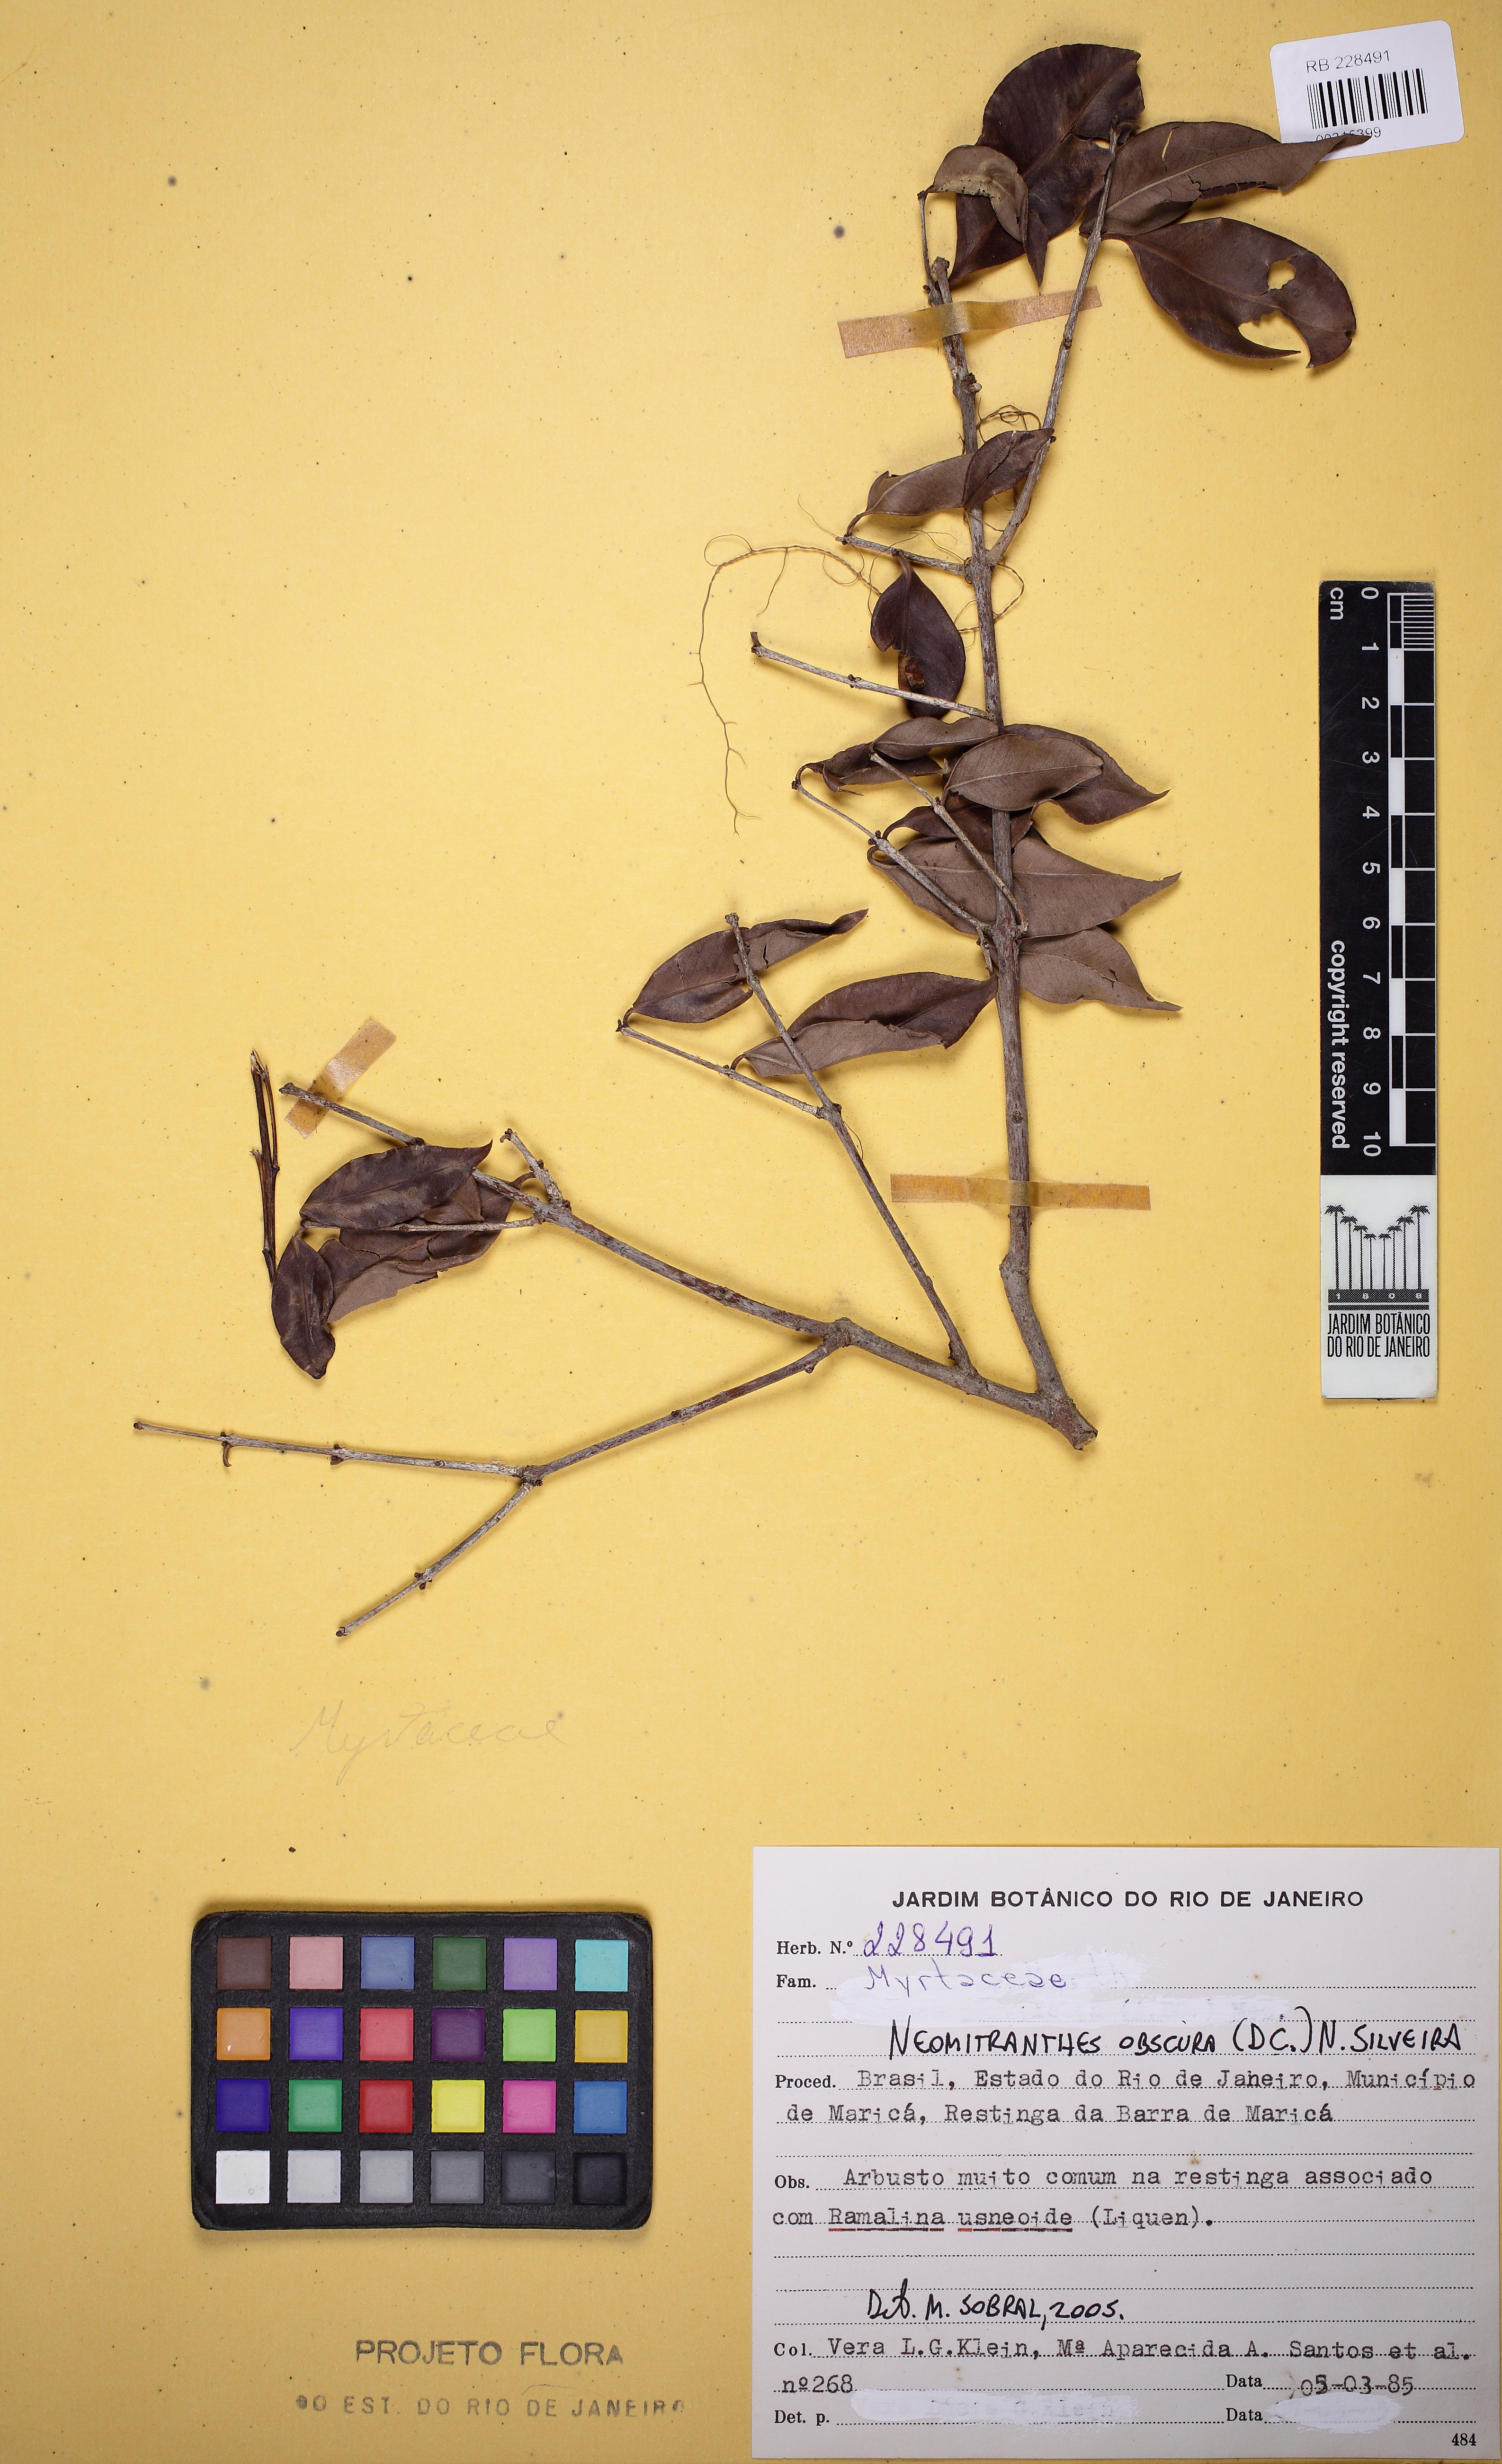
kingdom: Plantae
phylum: Tracheophyta
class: Magnoliopsida
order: Myrtales
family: Myrtaceae
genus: Neomitranthes
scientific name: Neomitranthes obscura
